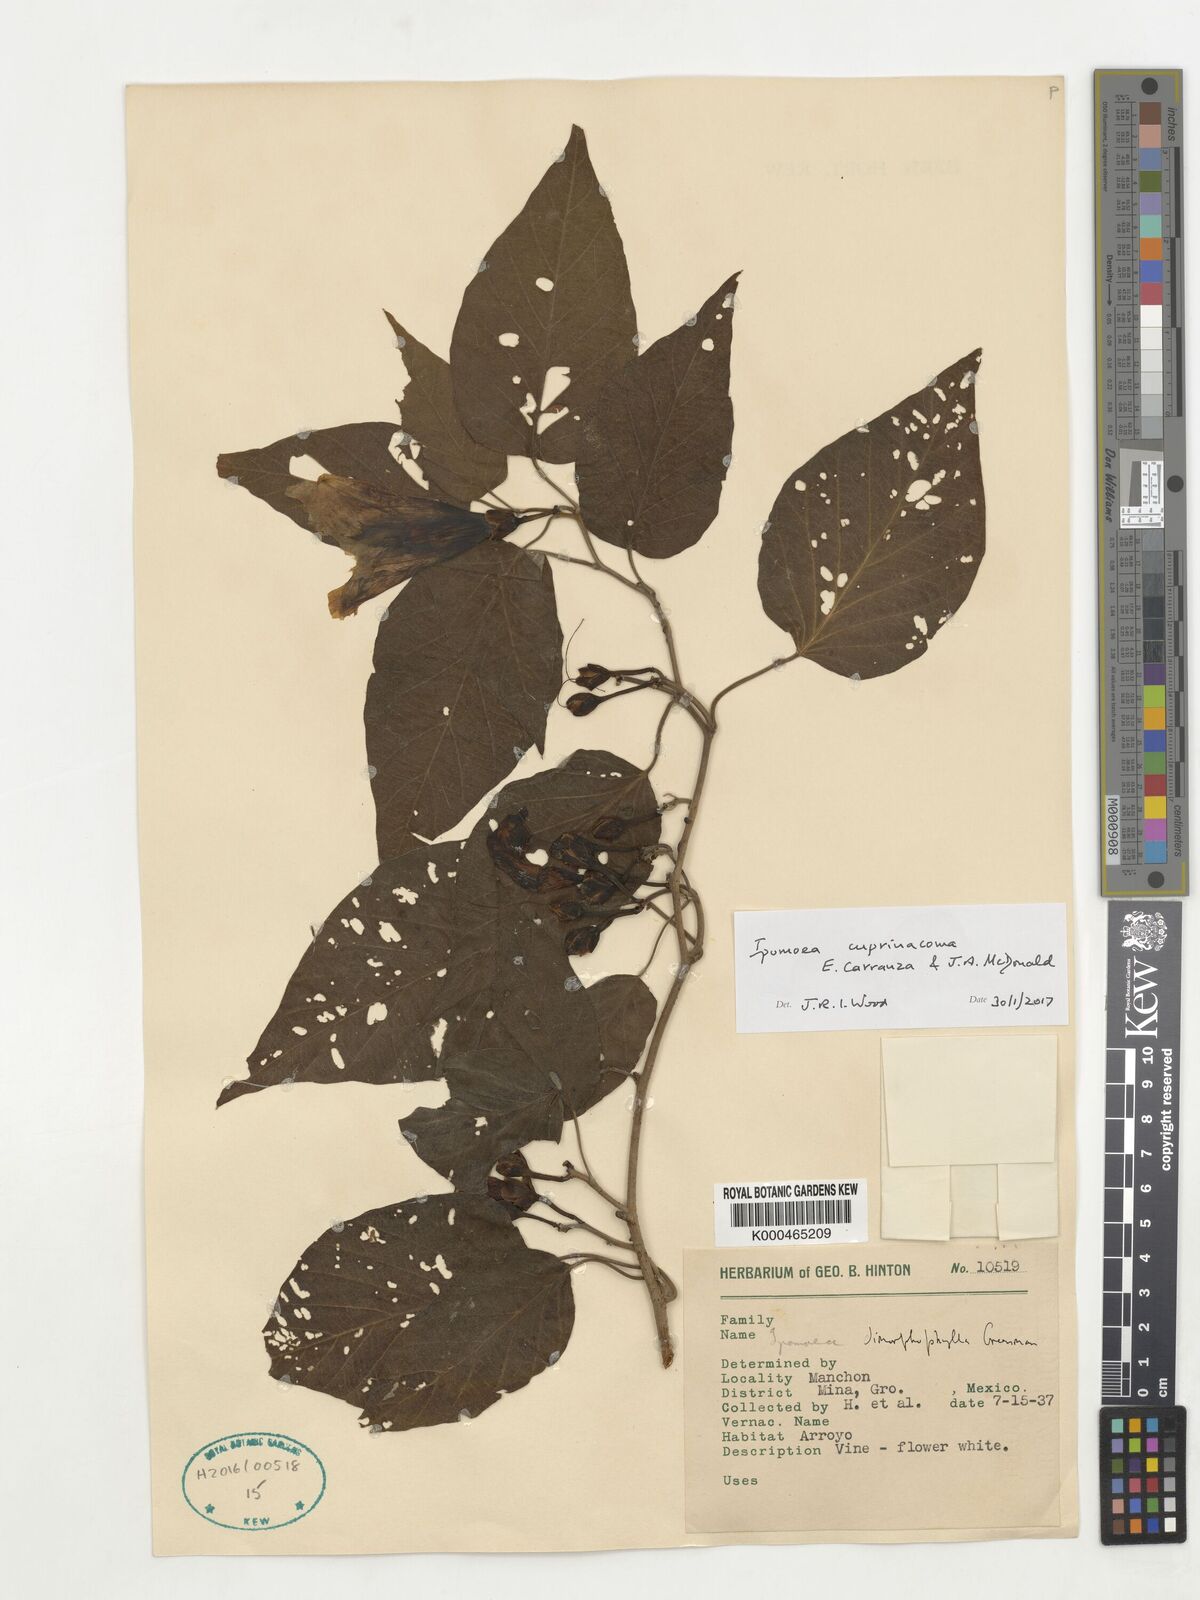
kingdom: Plantae
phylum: Tracheophyta
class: Magnoliopsida
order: Solanales
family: Convolvulaceae
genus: Ipomoea
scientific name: Ipomoea cuprinacoma
